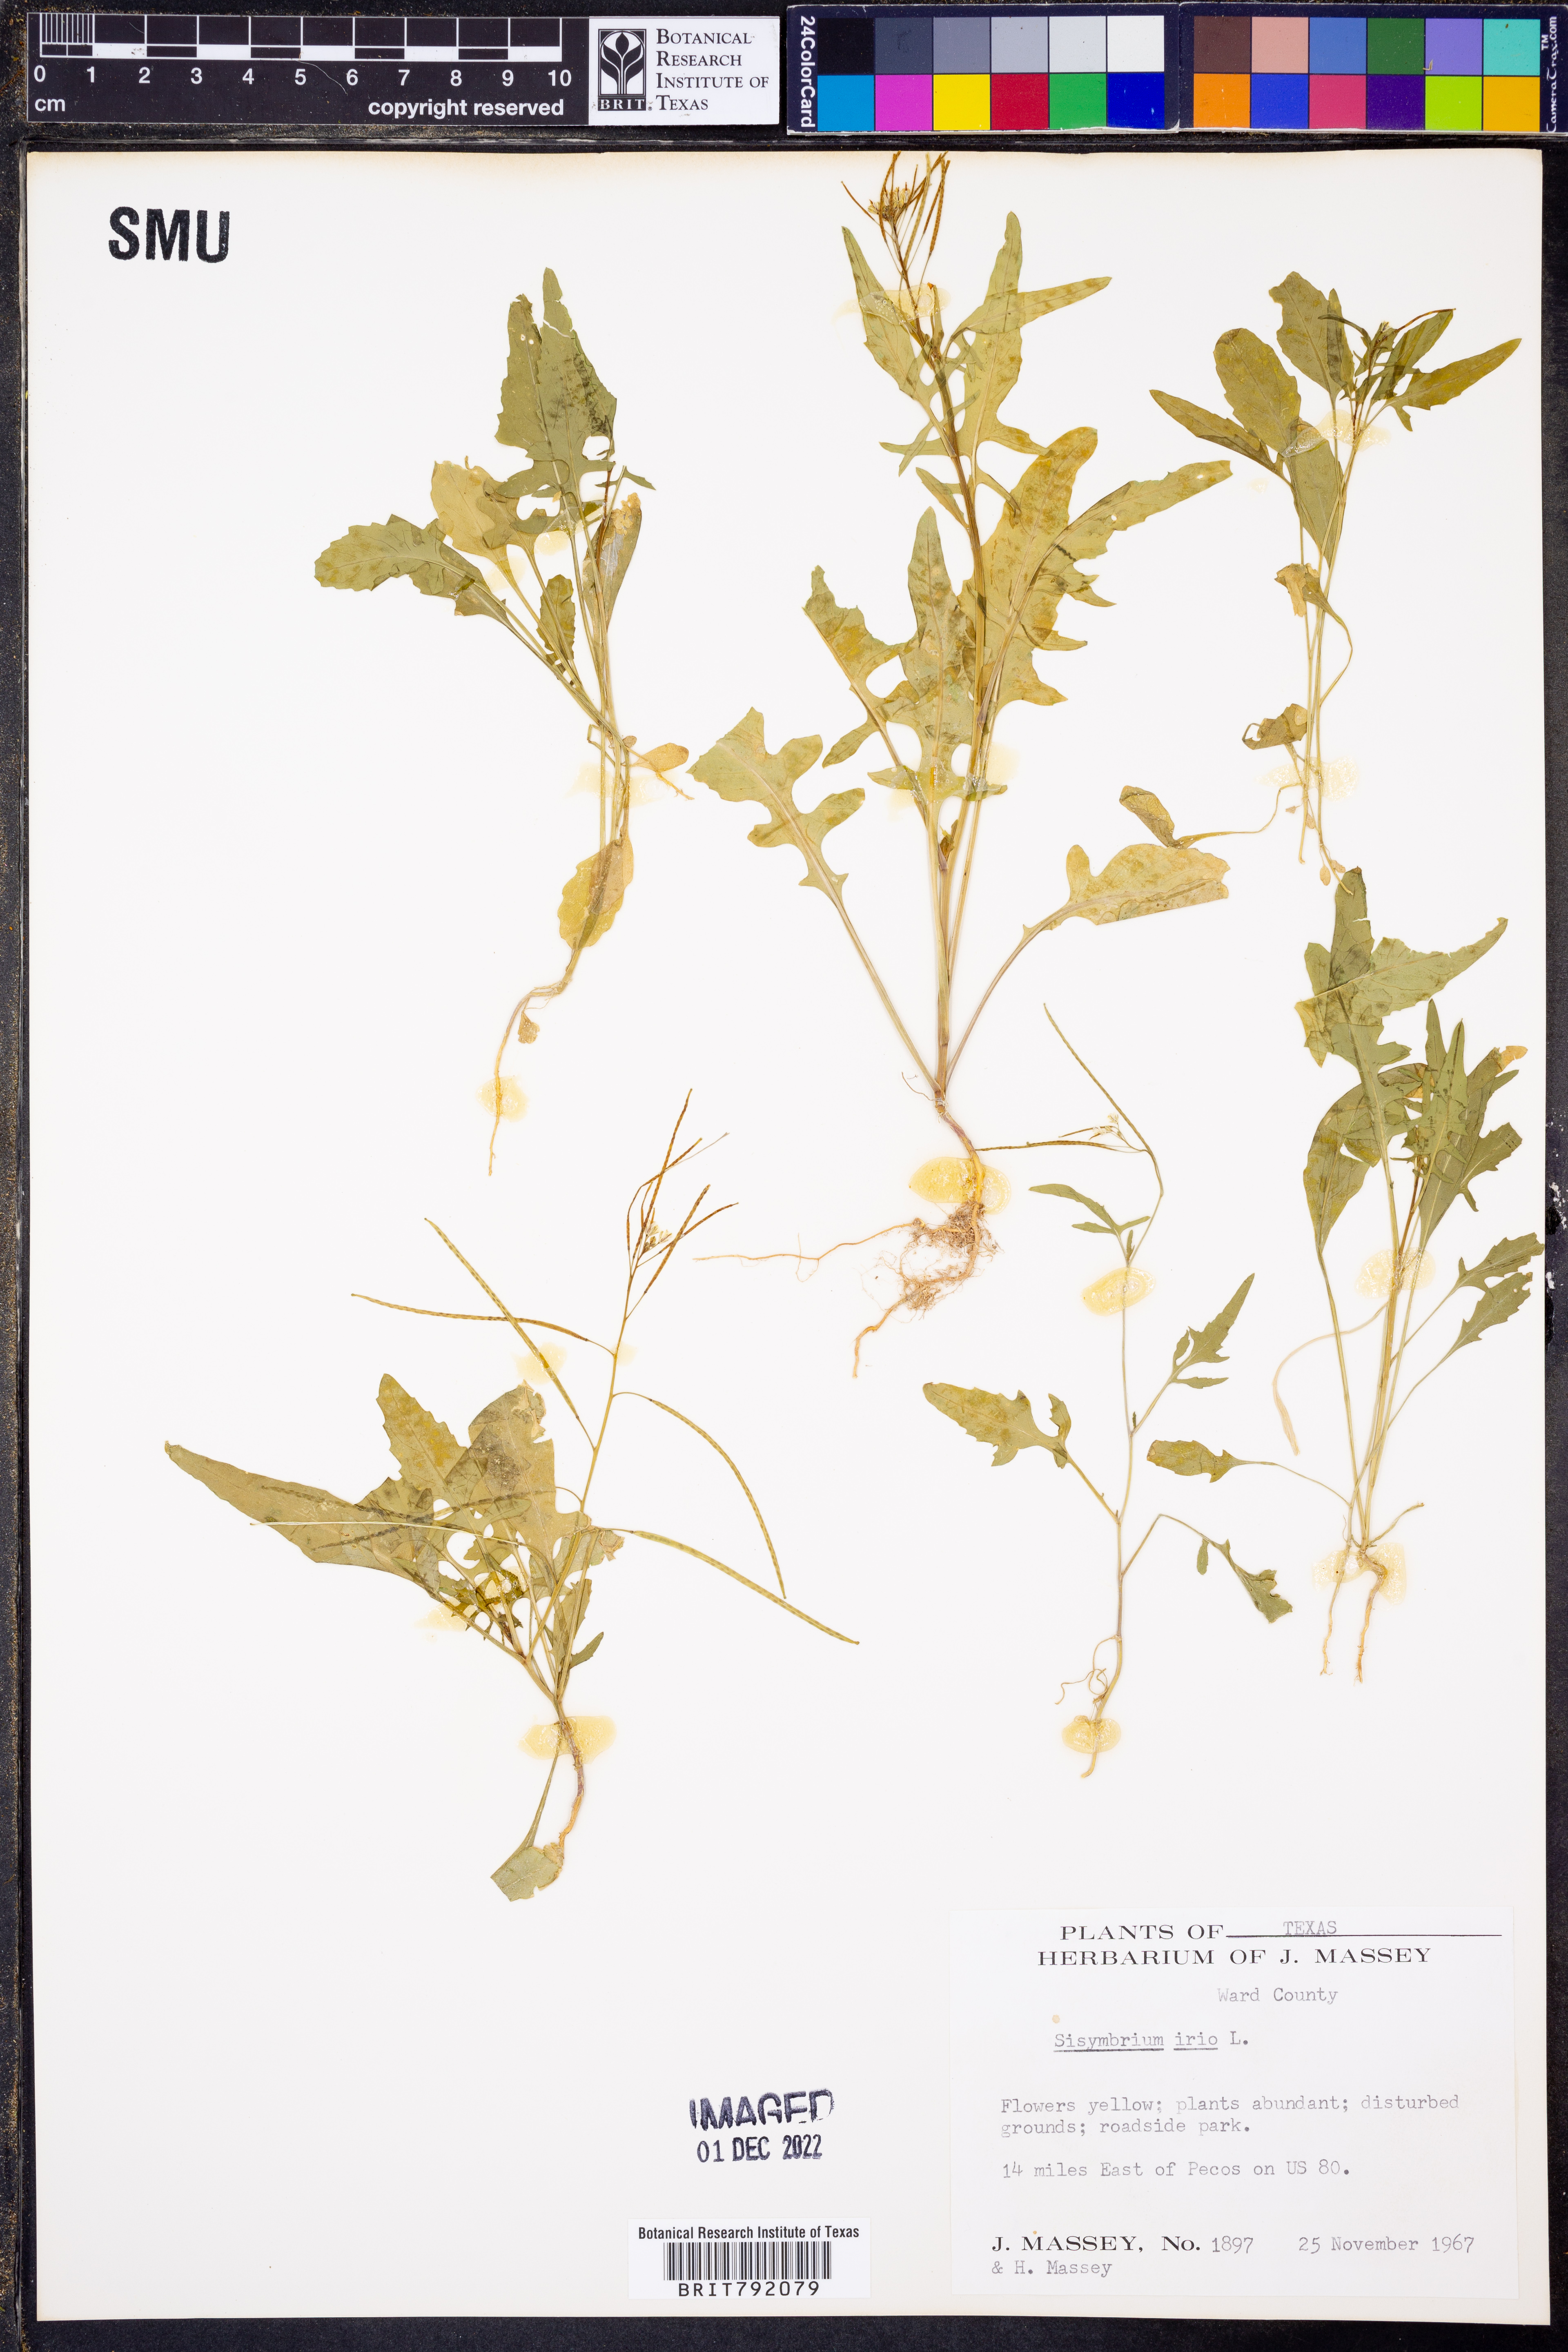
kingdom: Plantae
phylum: Tracheophyta
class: Magnoliopsida
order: Brassicales
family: Brassicaceae
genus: Sisymbrium
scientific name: Sisymbrium irio
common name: London rocket
